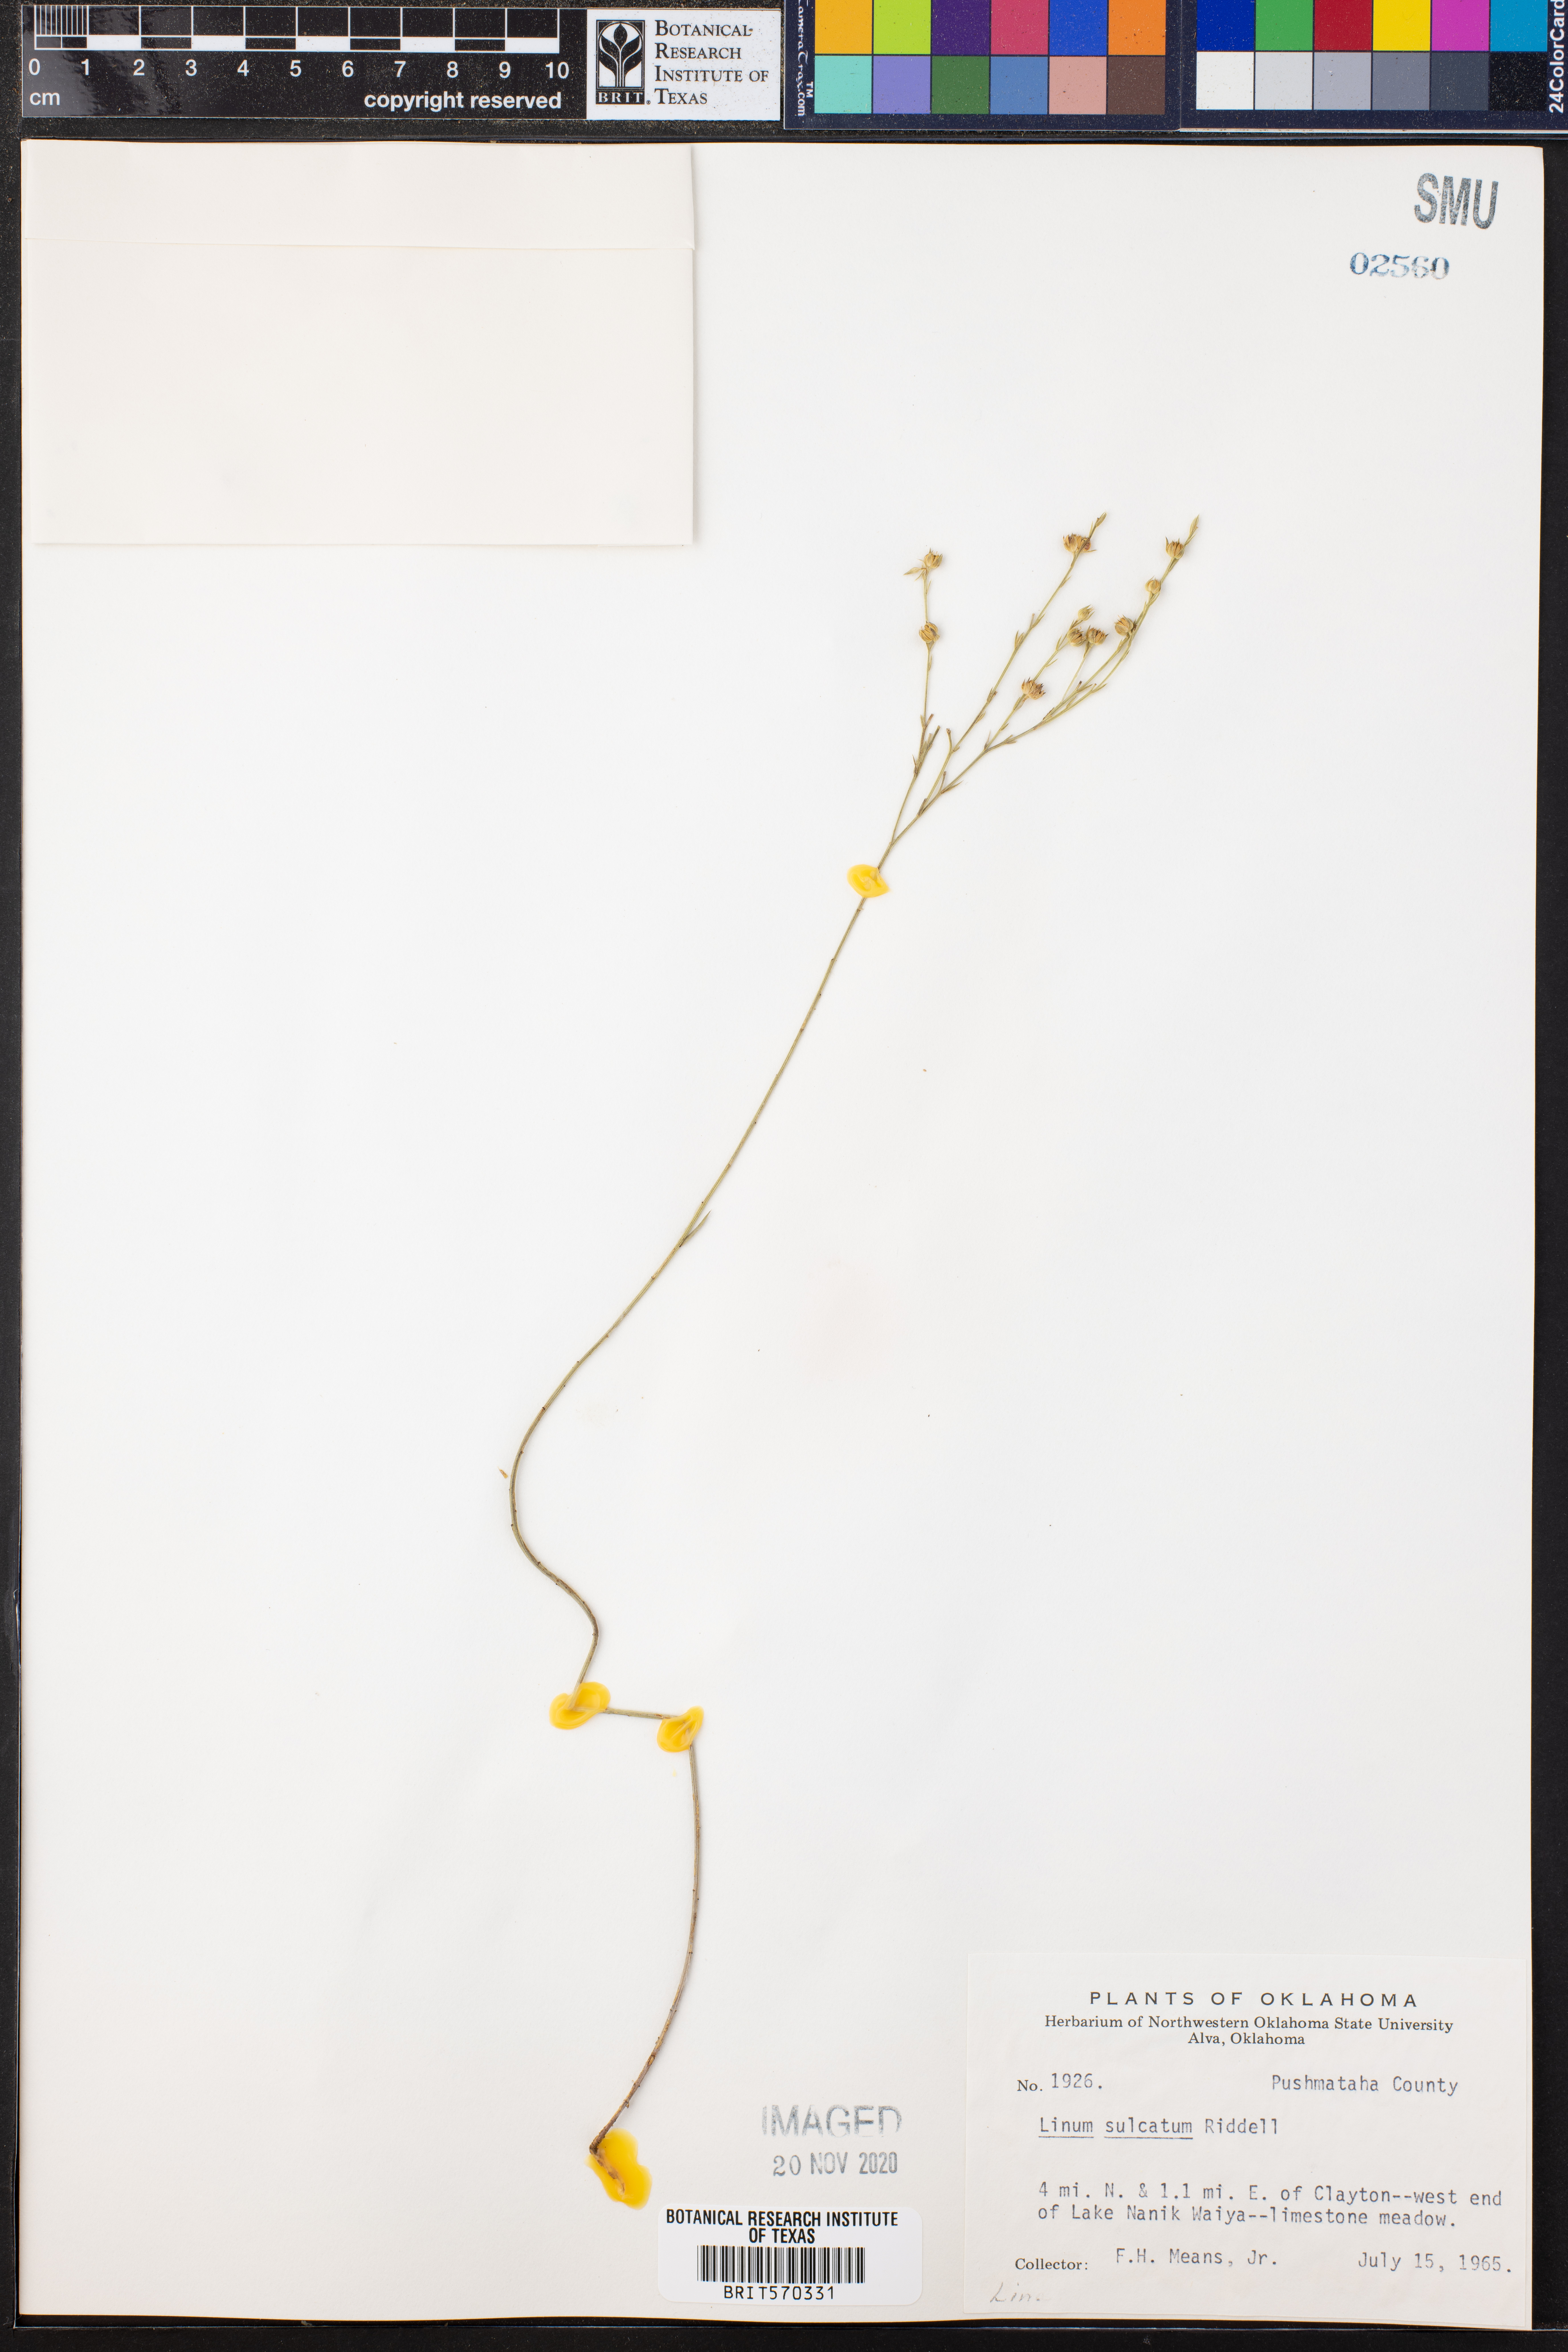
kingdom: Plantae
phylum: Tracheophyta
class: Magnoliopsida
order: Malpighiales
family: Linaceae
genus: Linum
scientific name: Linum sulcatum
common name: Grooved flax
